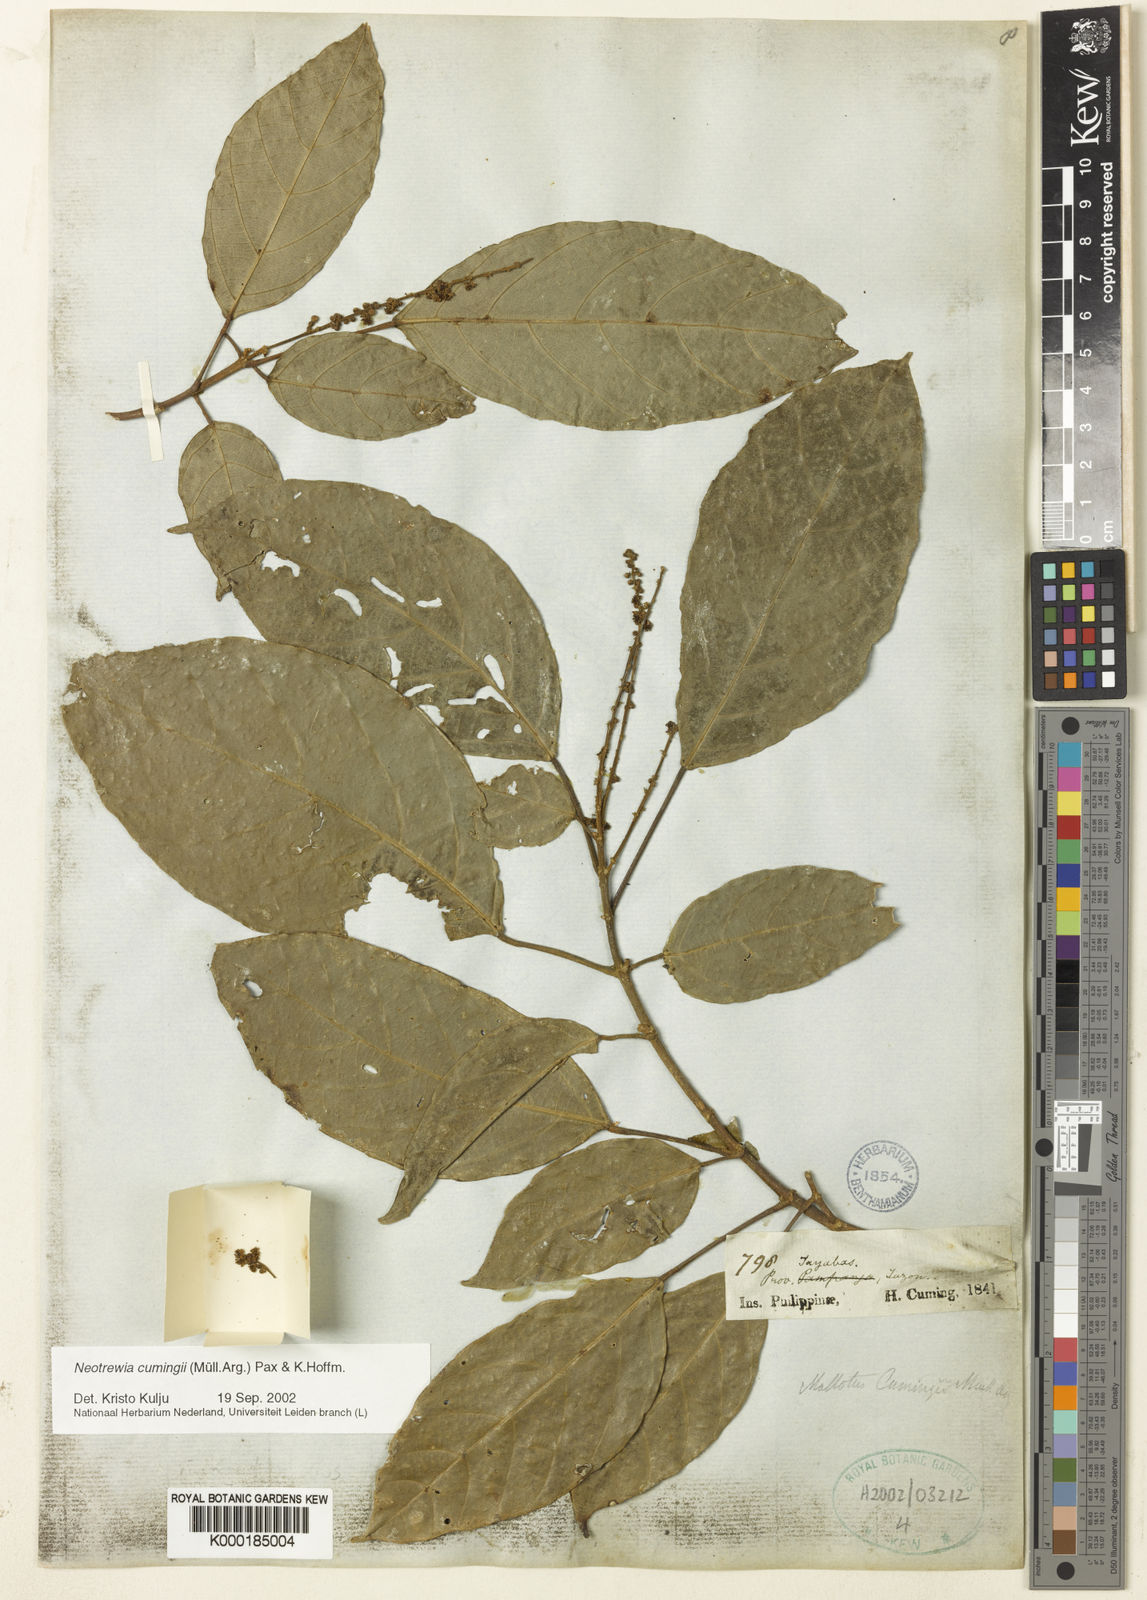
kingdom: Plantae
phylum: Tracheophyta
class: Magnoliopsida
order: Malpighiales
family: Euphorbiaceae
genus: Mallotus
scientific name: Mallotus cumingii
